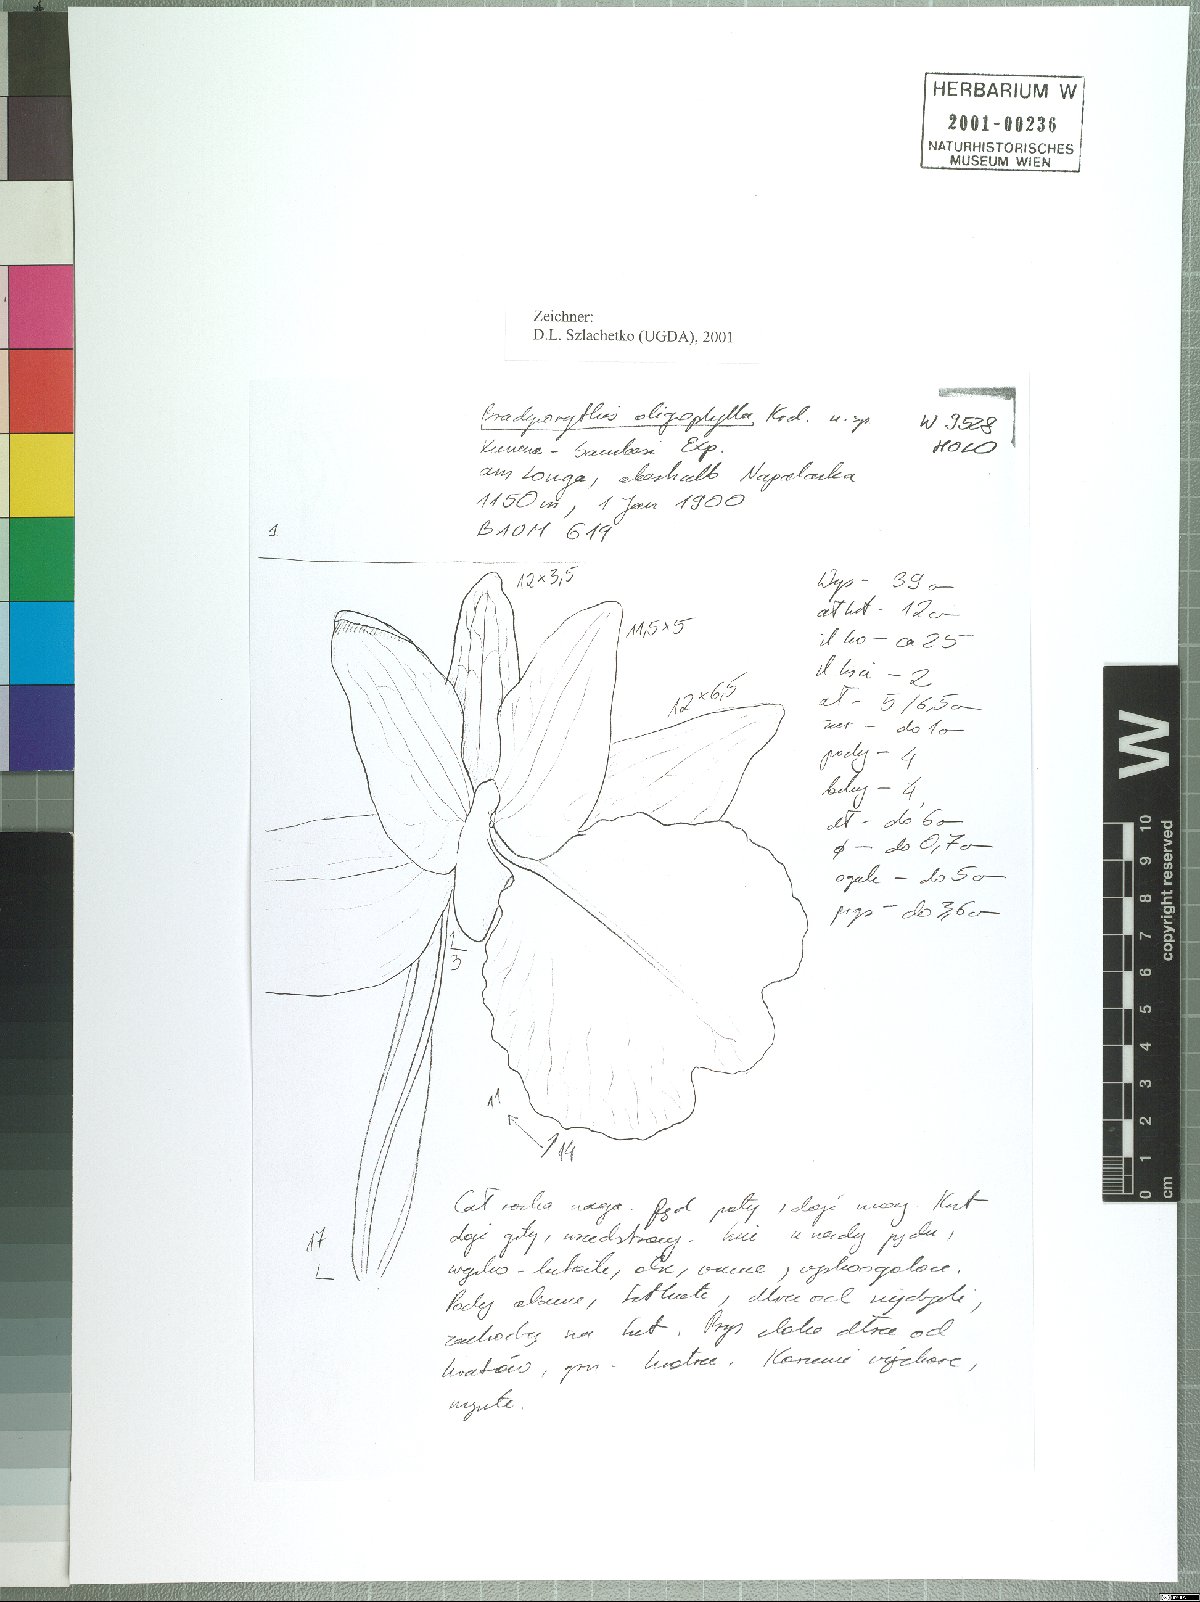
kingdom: Plantae
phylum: Tracheophyta
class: Liliopsida
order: Asparagales
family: Orchidaceae
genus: Brachycorythis
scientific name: Brachycorythis angolensis
